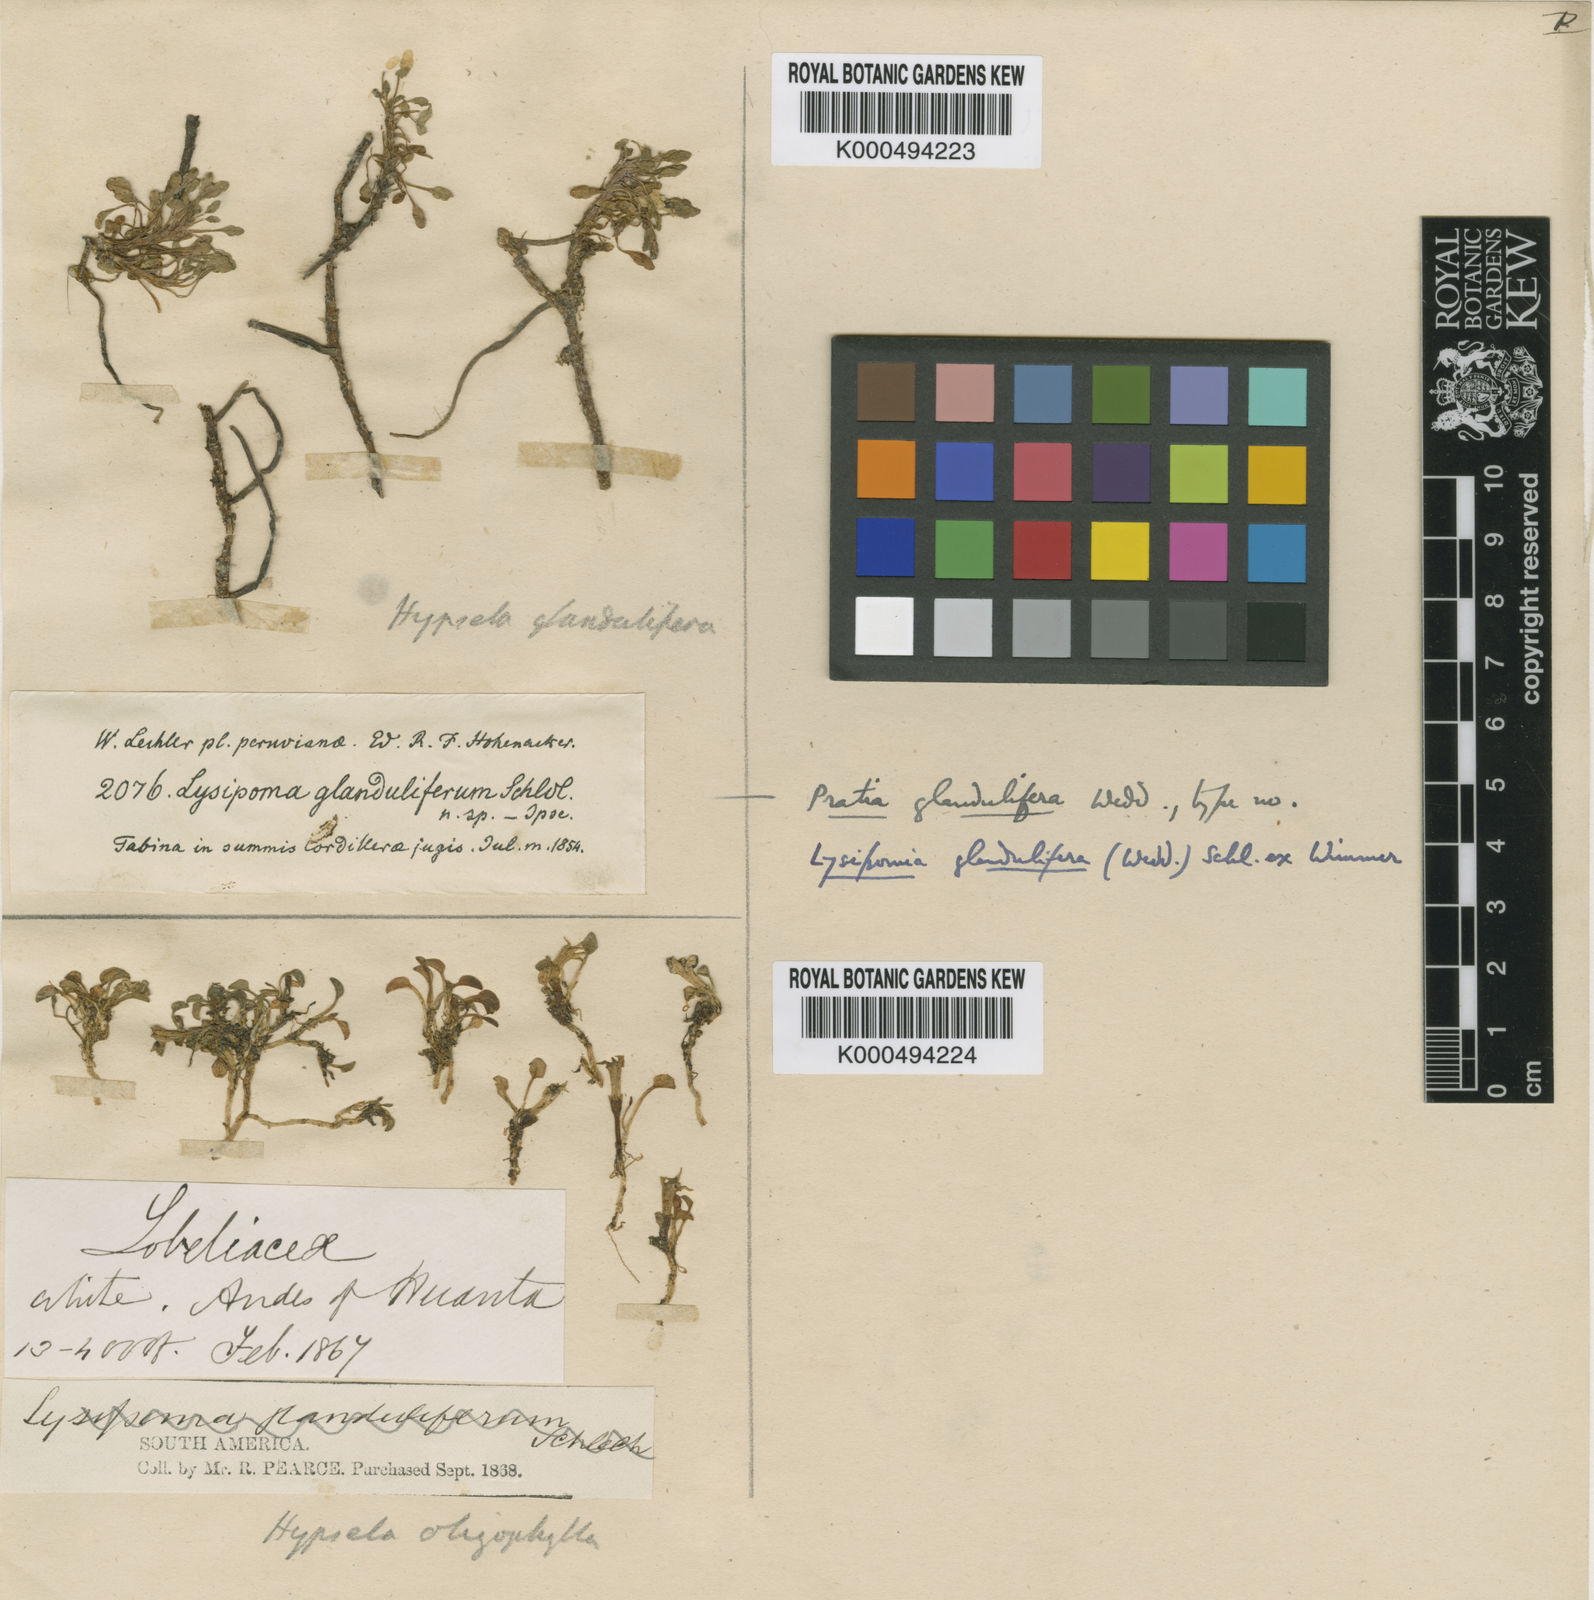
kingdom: Plantae
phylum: Tracheophyta
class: Magnoliopsida
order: Asterales
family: Campanulaceae
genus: Lysipomia
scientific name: Lysipomia glandulifera
